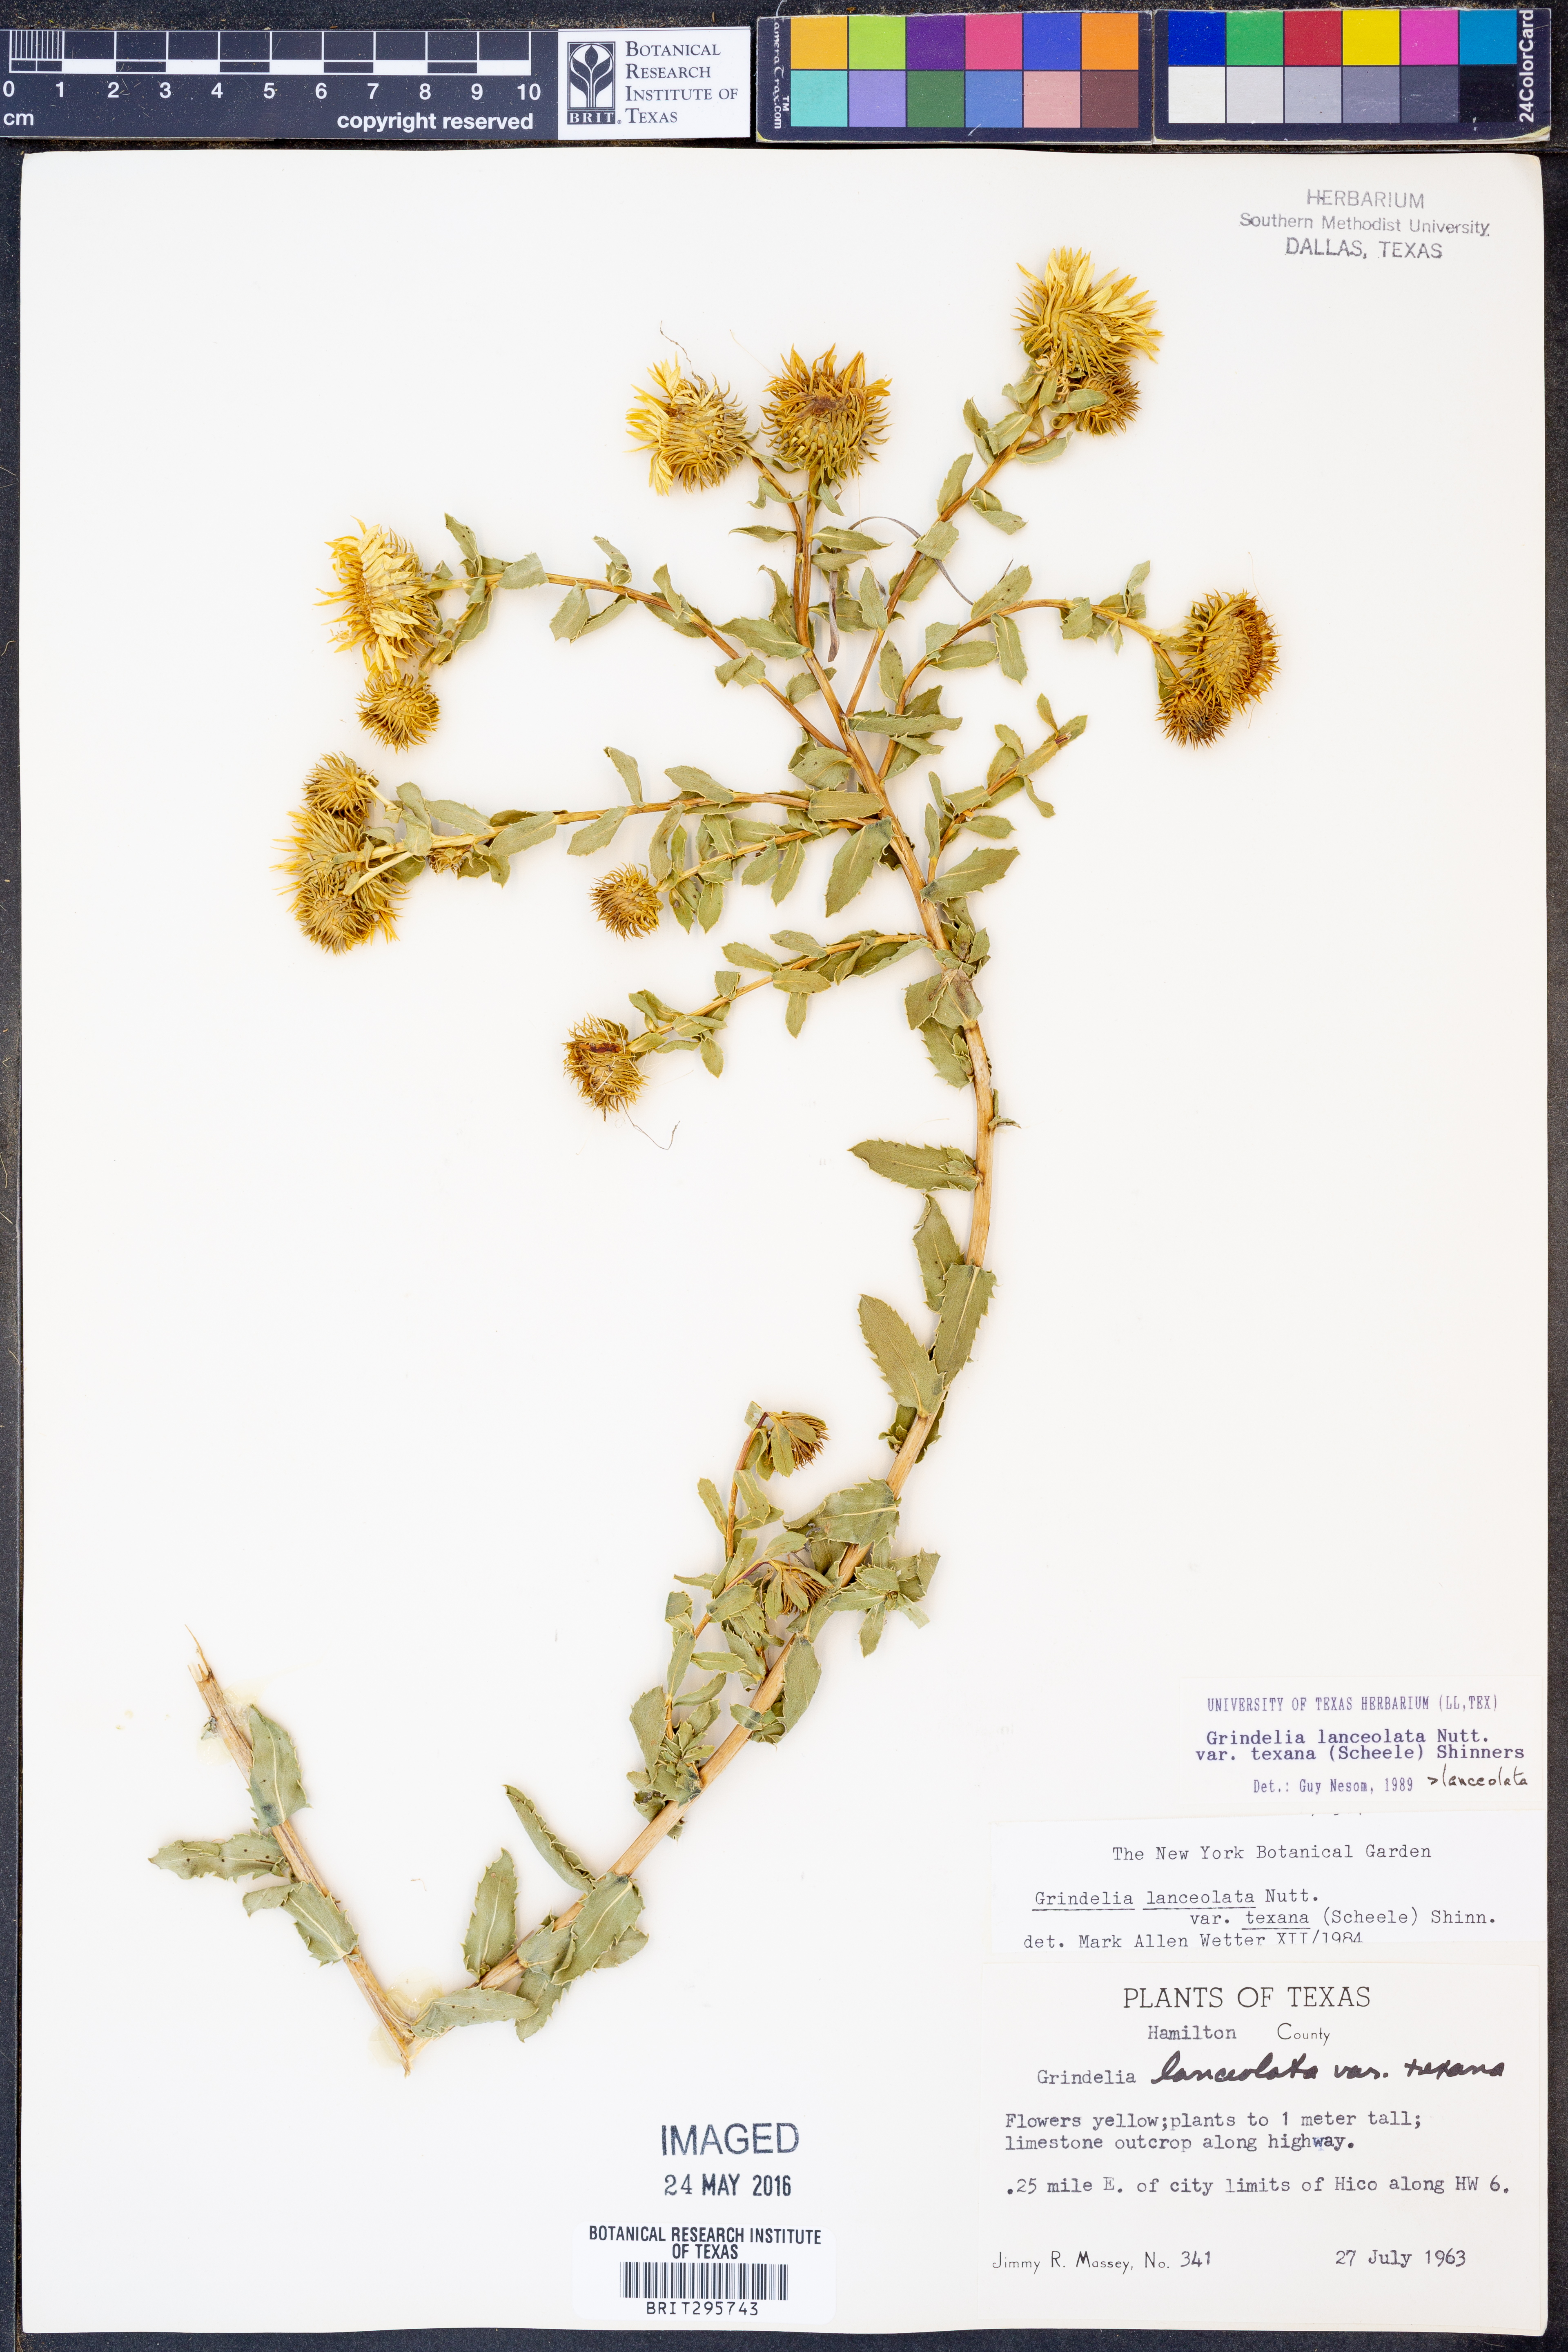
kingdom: Plantae
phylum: Tracheophyta
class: Magnoliopsida
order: Asterales
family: Asteraceae
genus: Grindelia
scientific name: Grindelia texana
